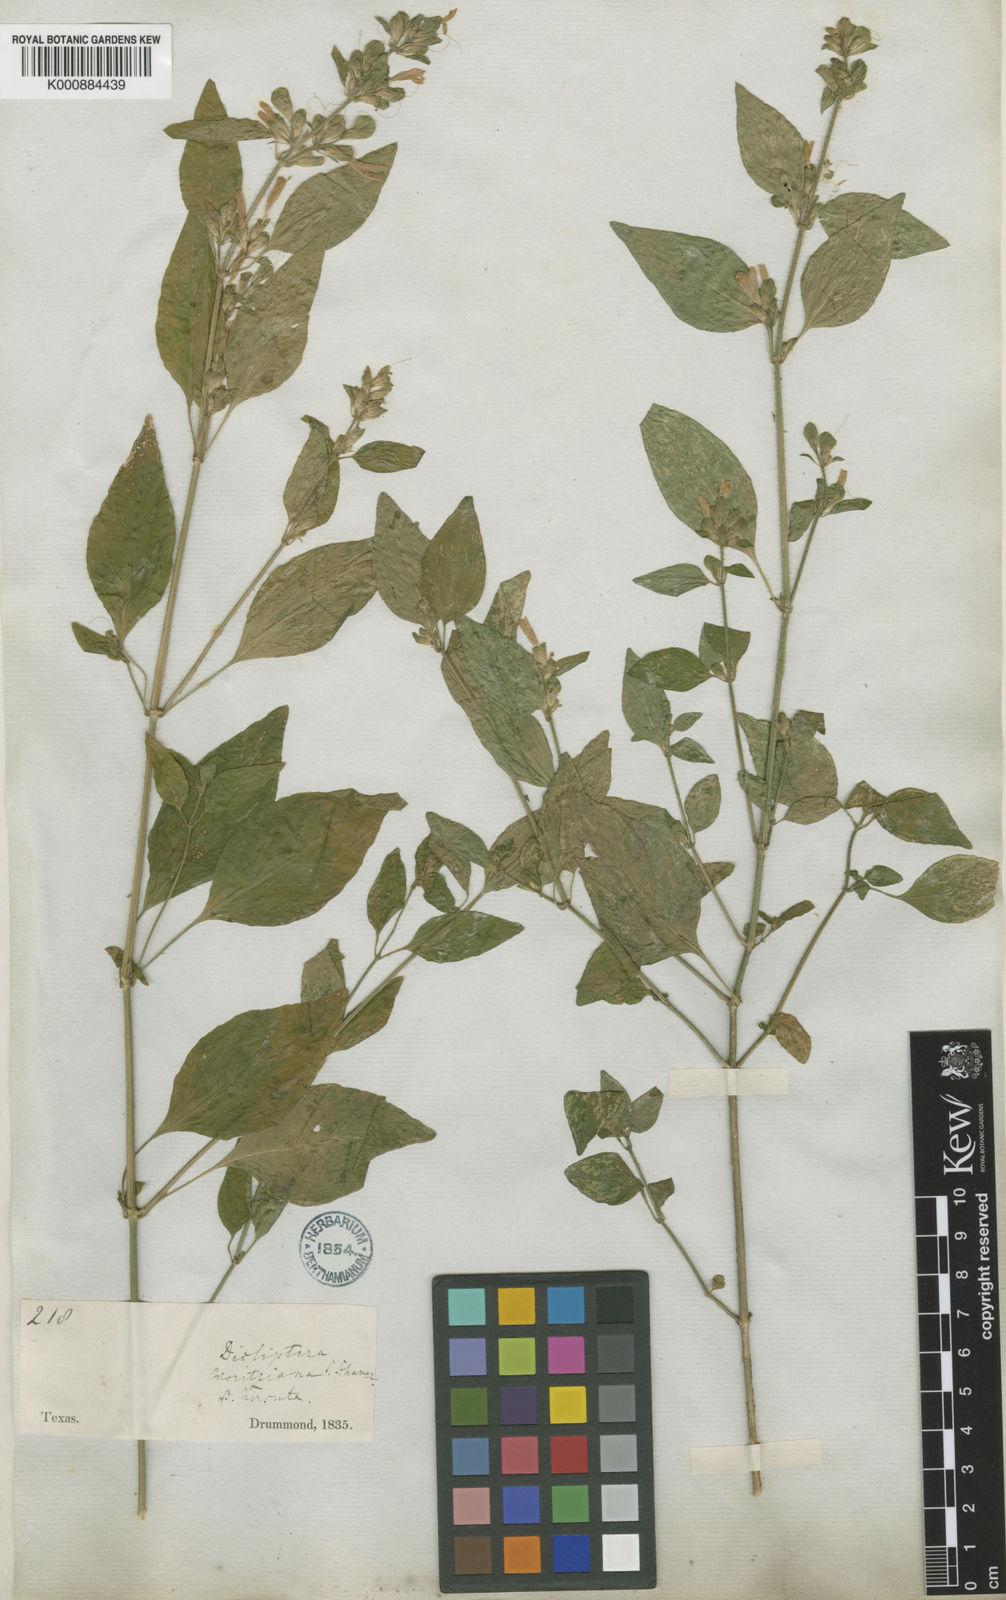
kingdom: Plantae
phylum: Tracheophyta
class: Magnoliopsida
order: Lamiales
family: Acanthaceae
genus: Dicliptera
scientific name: Dicliptera brachiata
